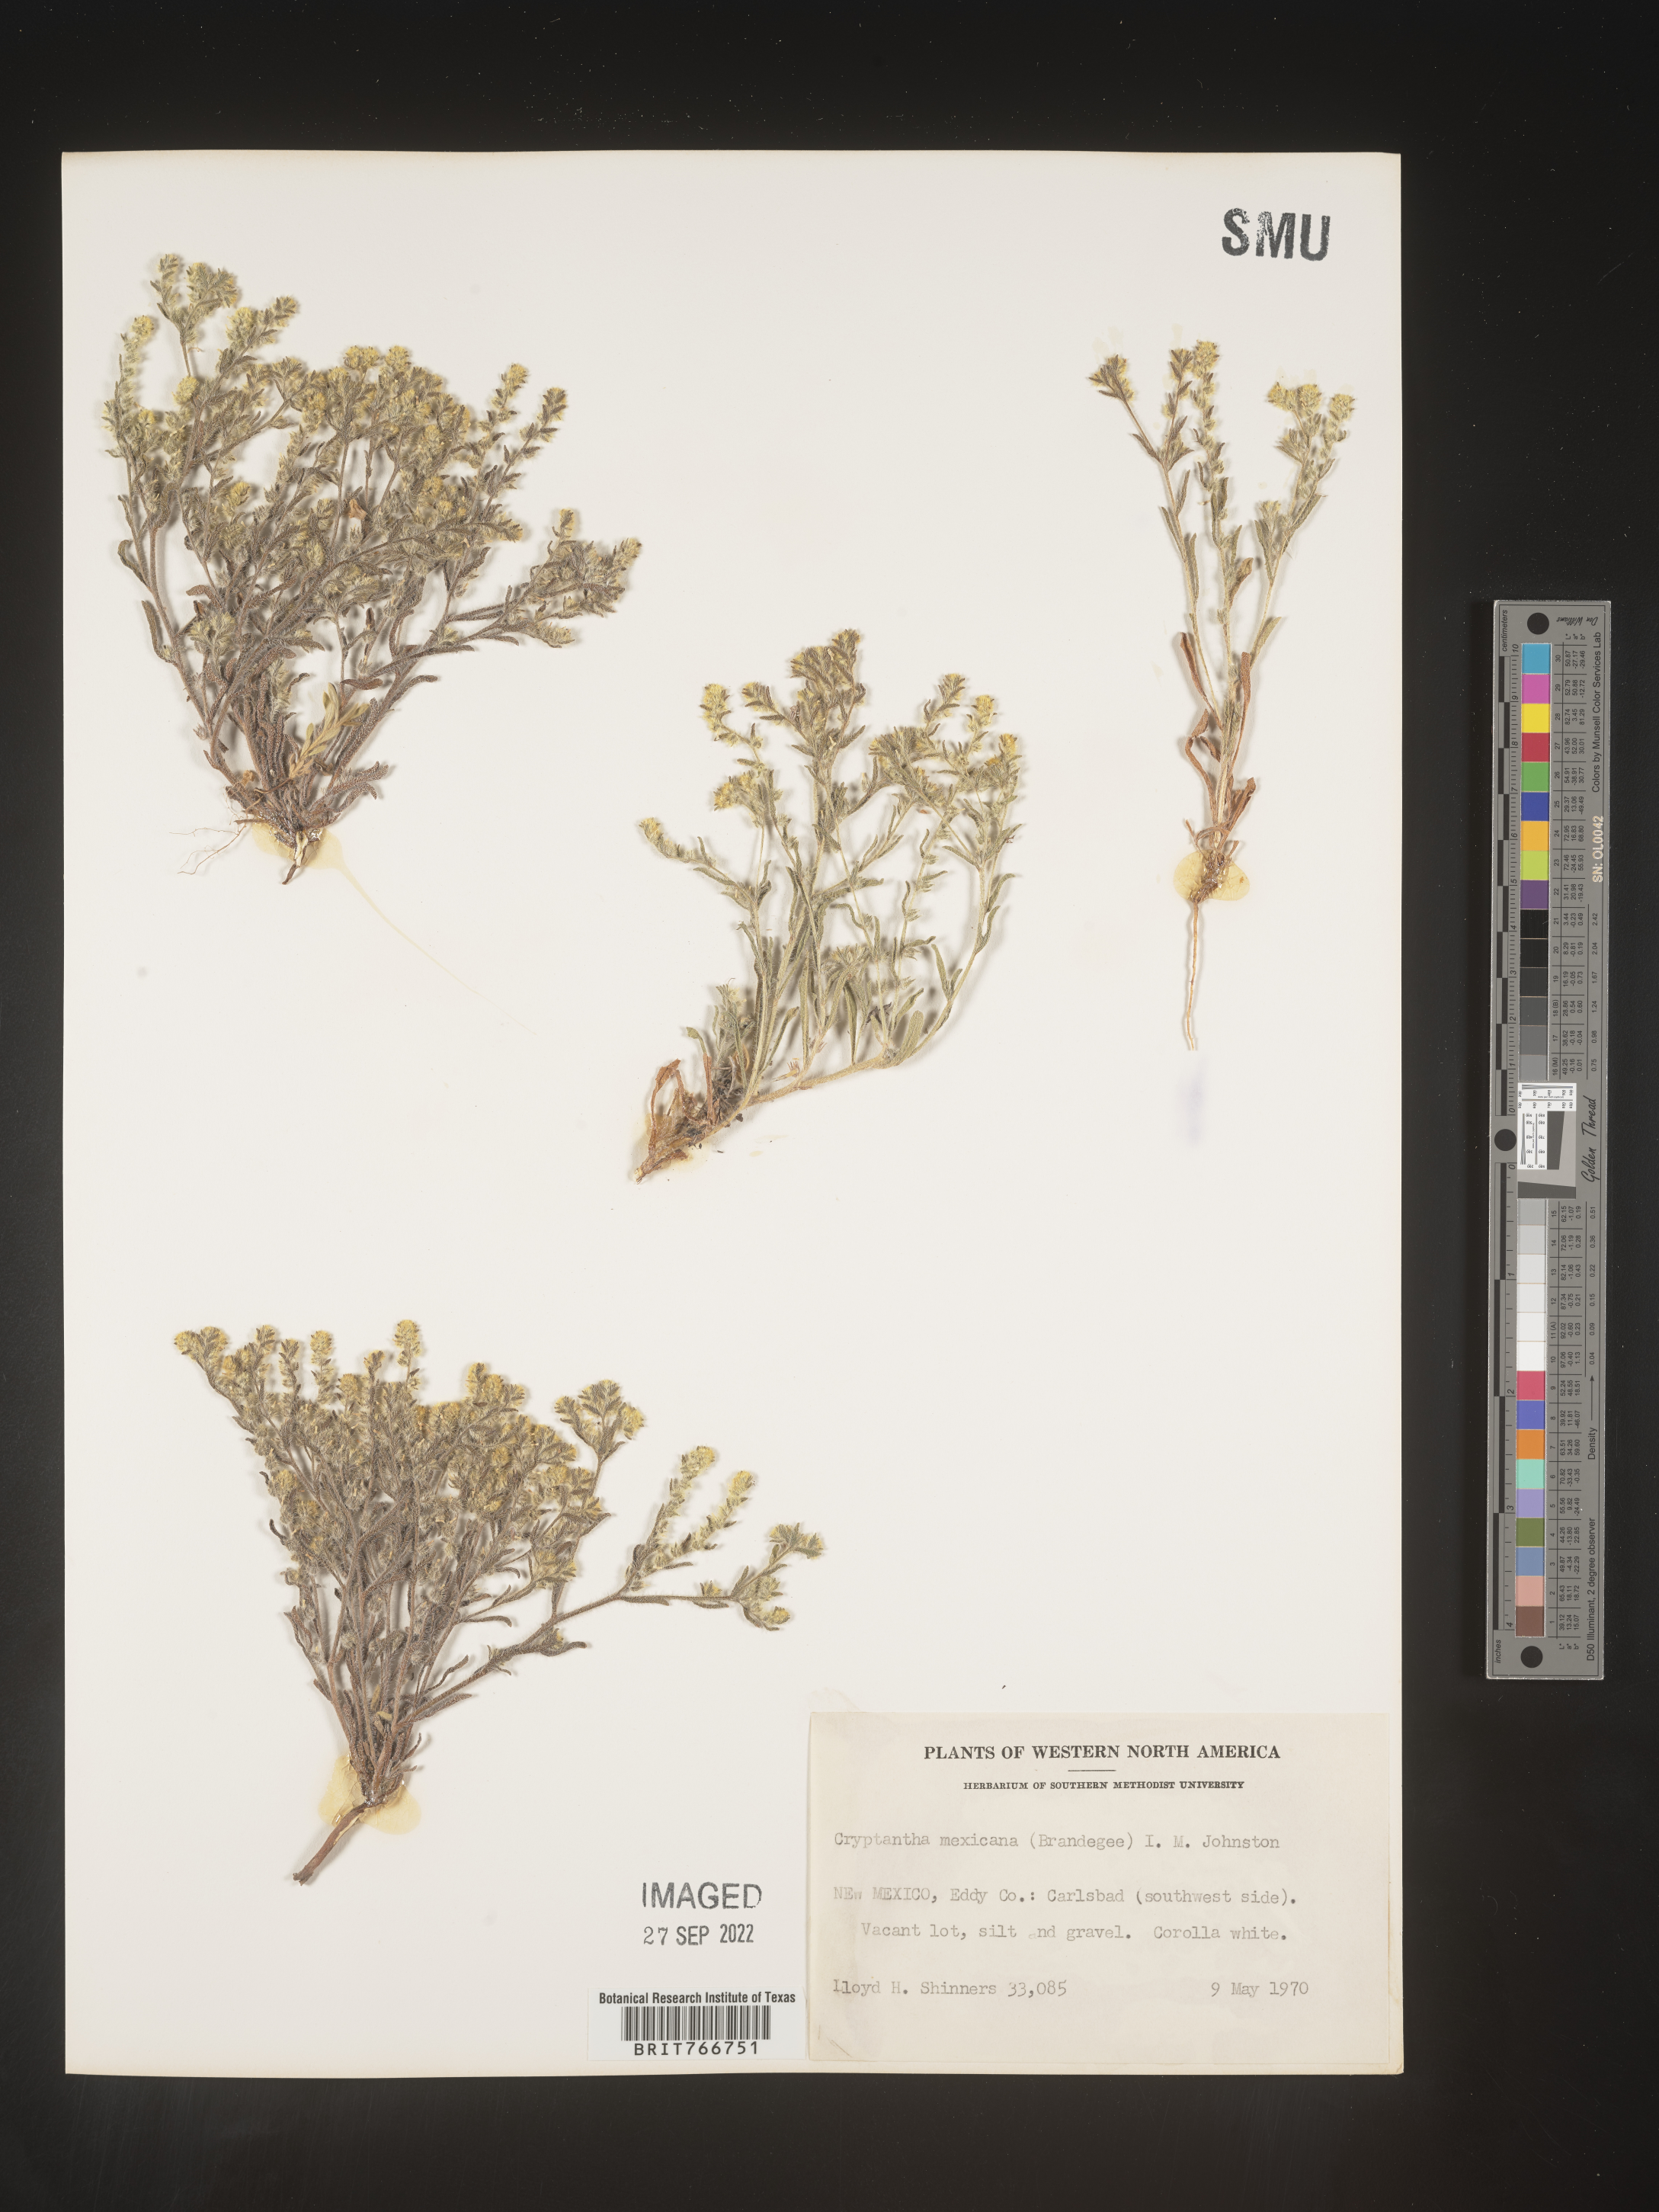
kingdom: Plantae
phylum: Tracheophyta
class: Magnoliopsida
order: Boraginales
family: Boraginaceae
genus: Cryptantha
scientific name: Cryptantha
